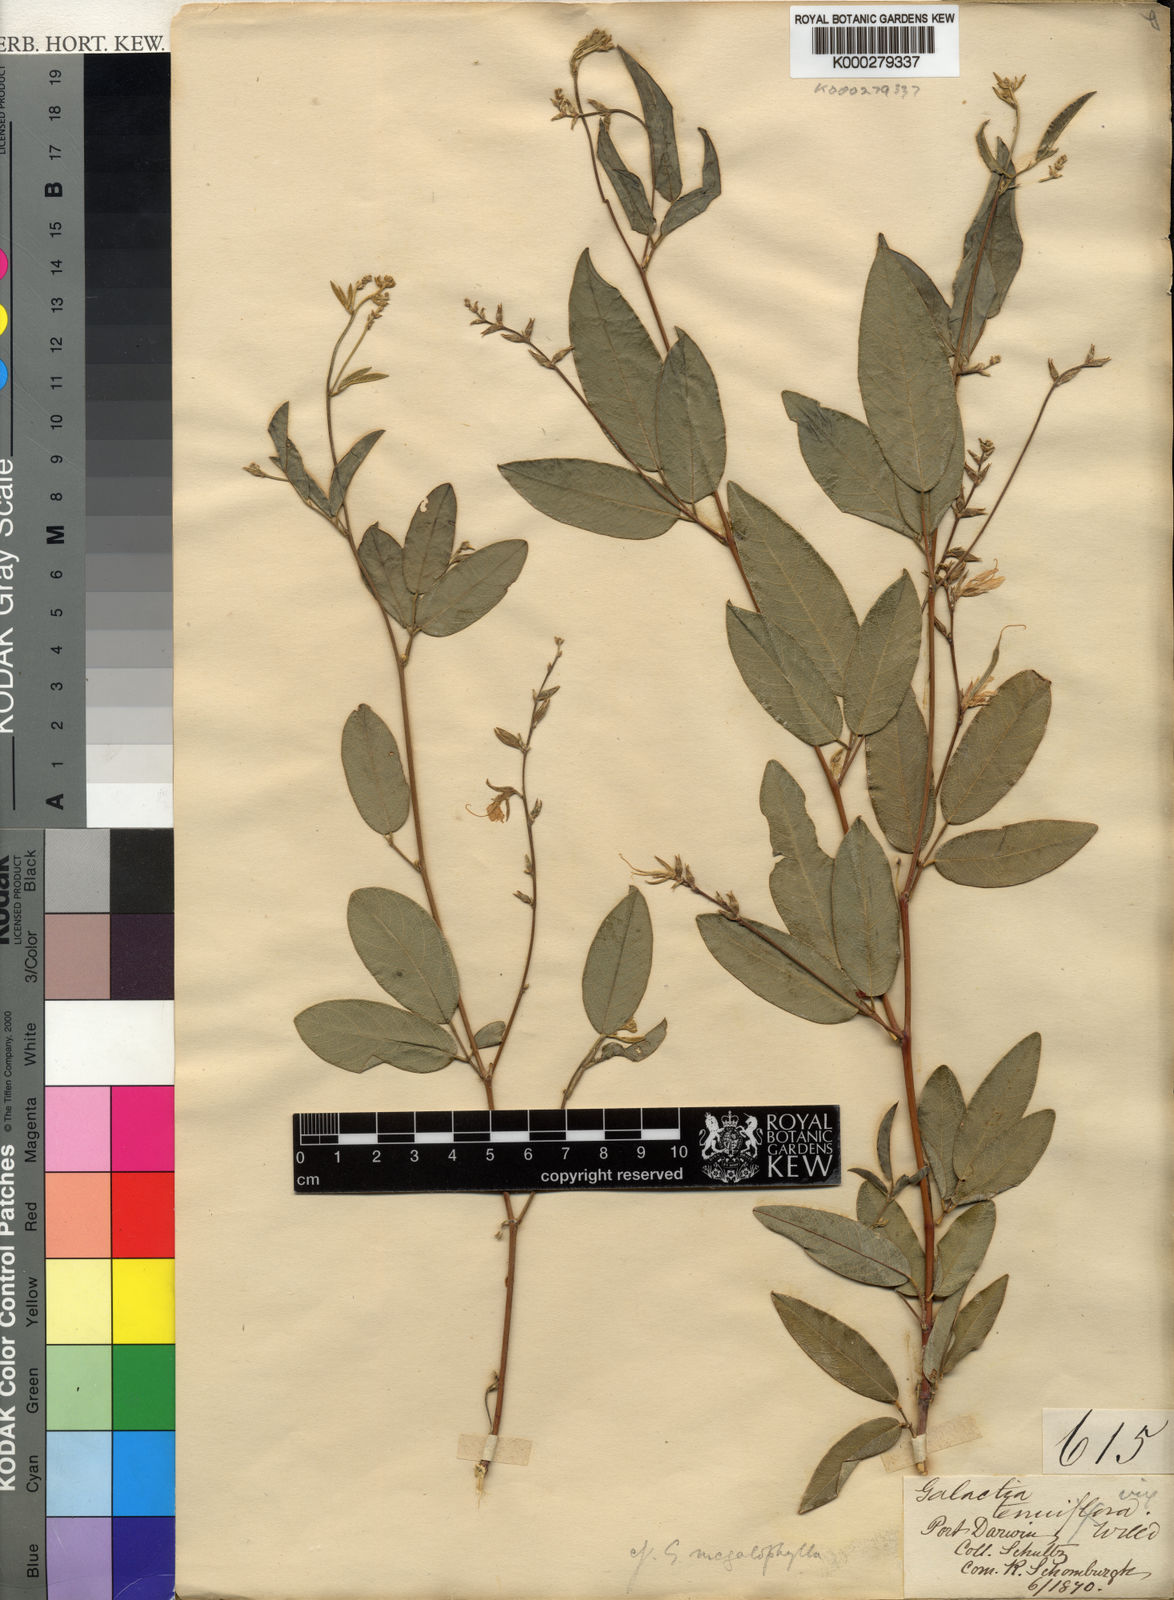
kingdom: Plantae
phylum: Tracheophyta
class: Magnoliopsida
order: Fabales
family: Fabaceae
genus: Galactia
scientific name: Galactia striata
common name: Florida hammock milkpea
